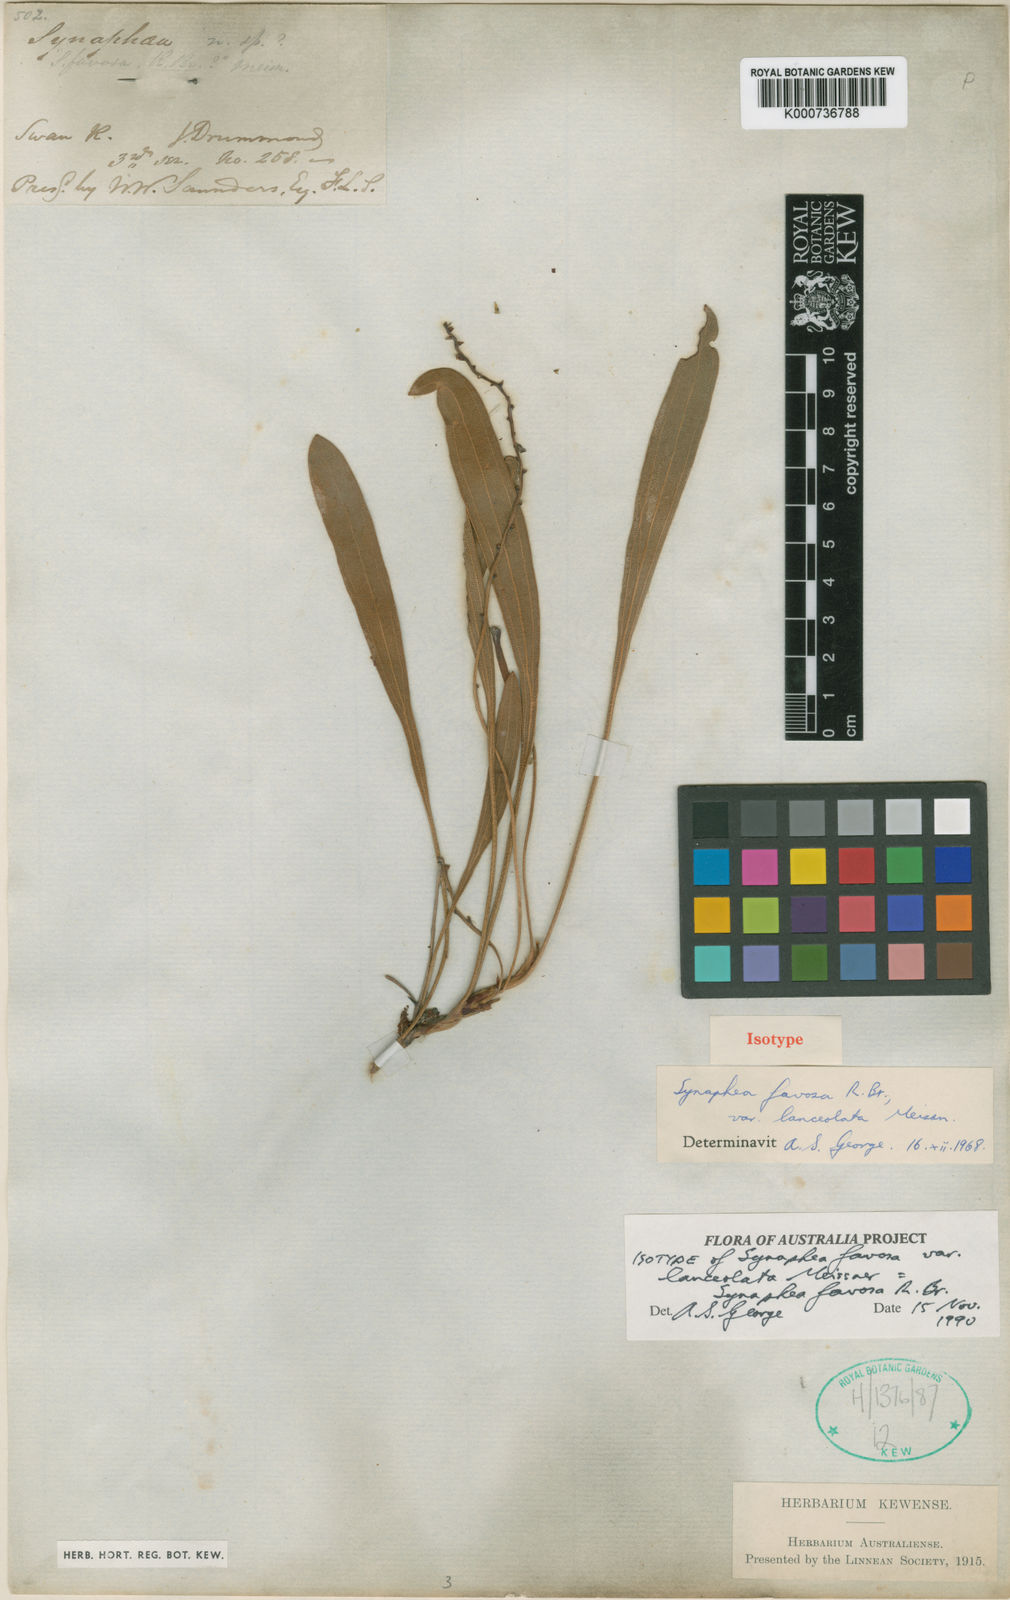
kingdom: Plantae
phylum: Tracheophyta
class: Magnoliopsida
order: Proteales
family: Proteaceae
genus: Synaphea
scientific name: Synaphea
